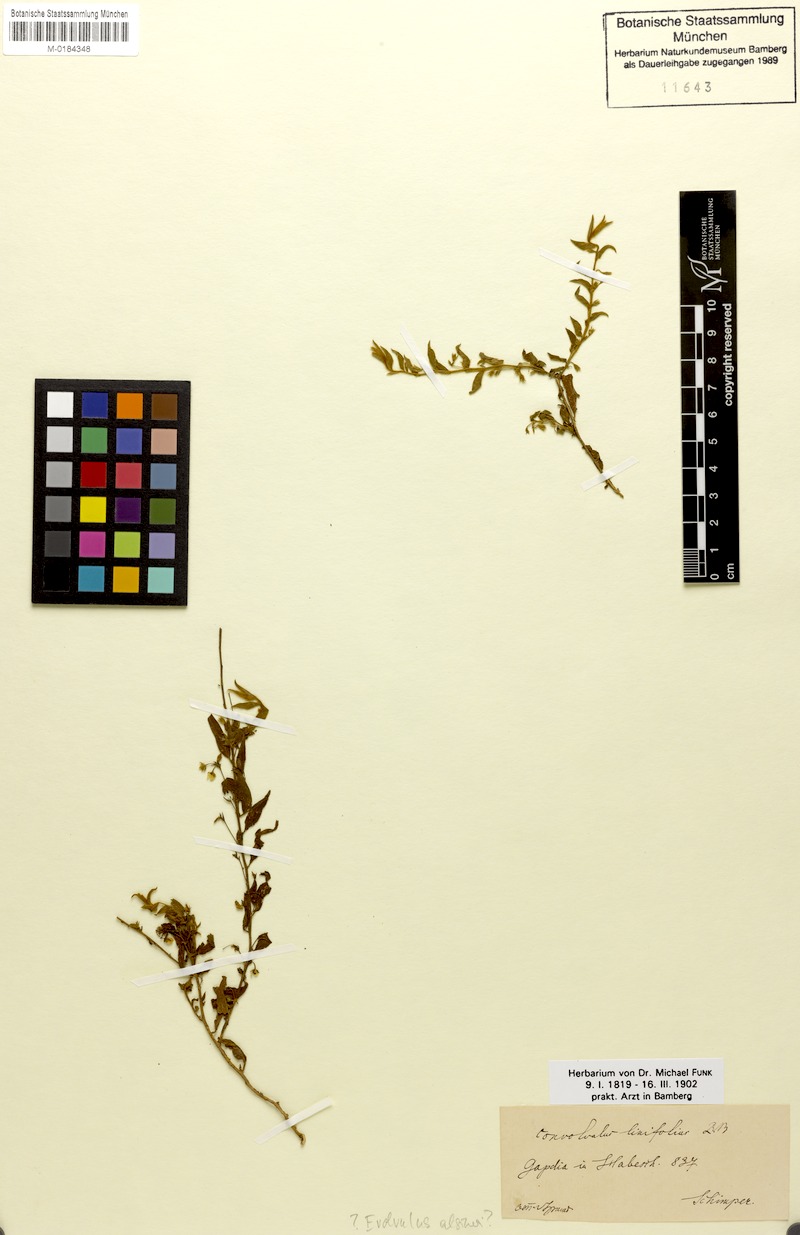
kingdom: Plantae
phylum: Tracheophyta
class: Magnoliopsida
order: Solanales
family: Convolvulaceae
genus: Evolvulus
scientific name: Evolvulus alsinoides
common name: Slender dwarf morning-glory
